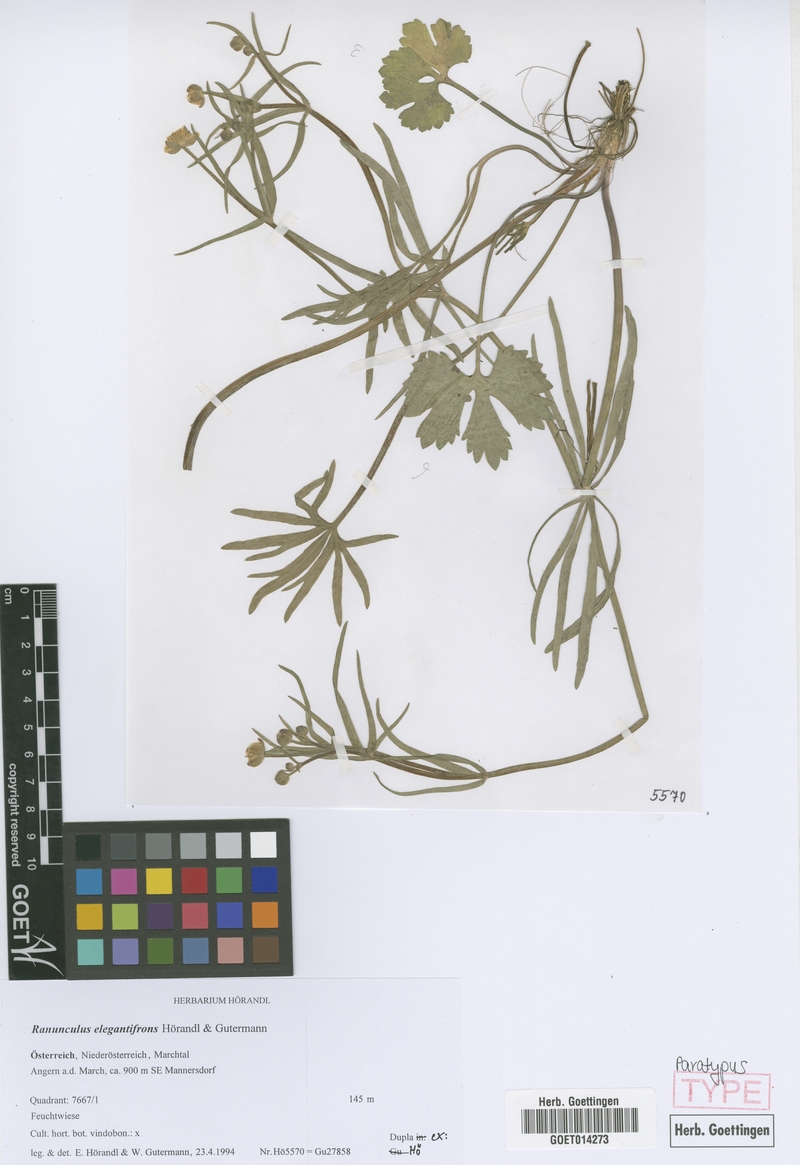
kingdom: Plantae
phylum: Tracheophyta
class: Magnoliopsida
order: Ranunculales
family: Ranunculaceae
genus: Ranunculus
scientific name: Ranunculus elegantifrons
